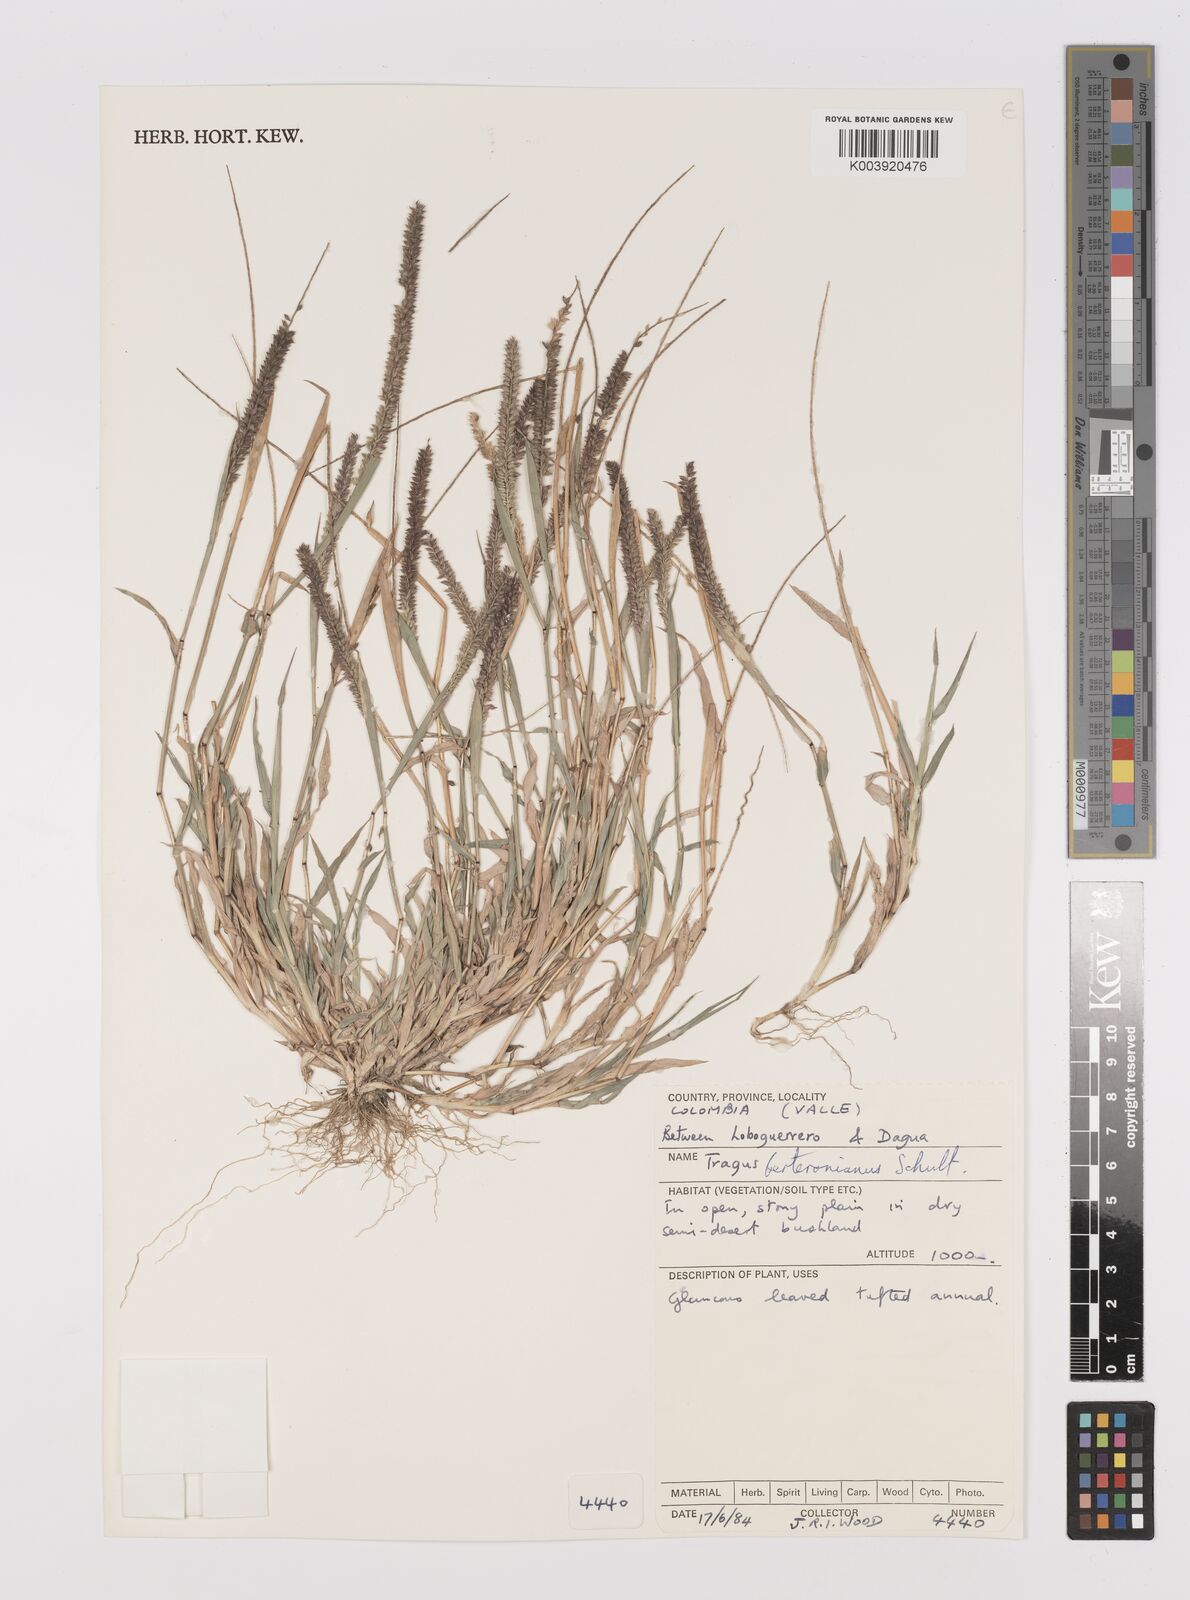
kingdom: Plantae
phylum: Tracheophyta
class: Liliopsida
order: Poales
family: Poaceae
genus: Tragus
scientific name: Tragus berteronianus
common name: African bur-grass
